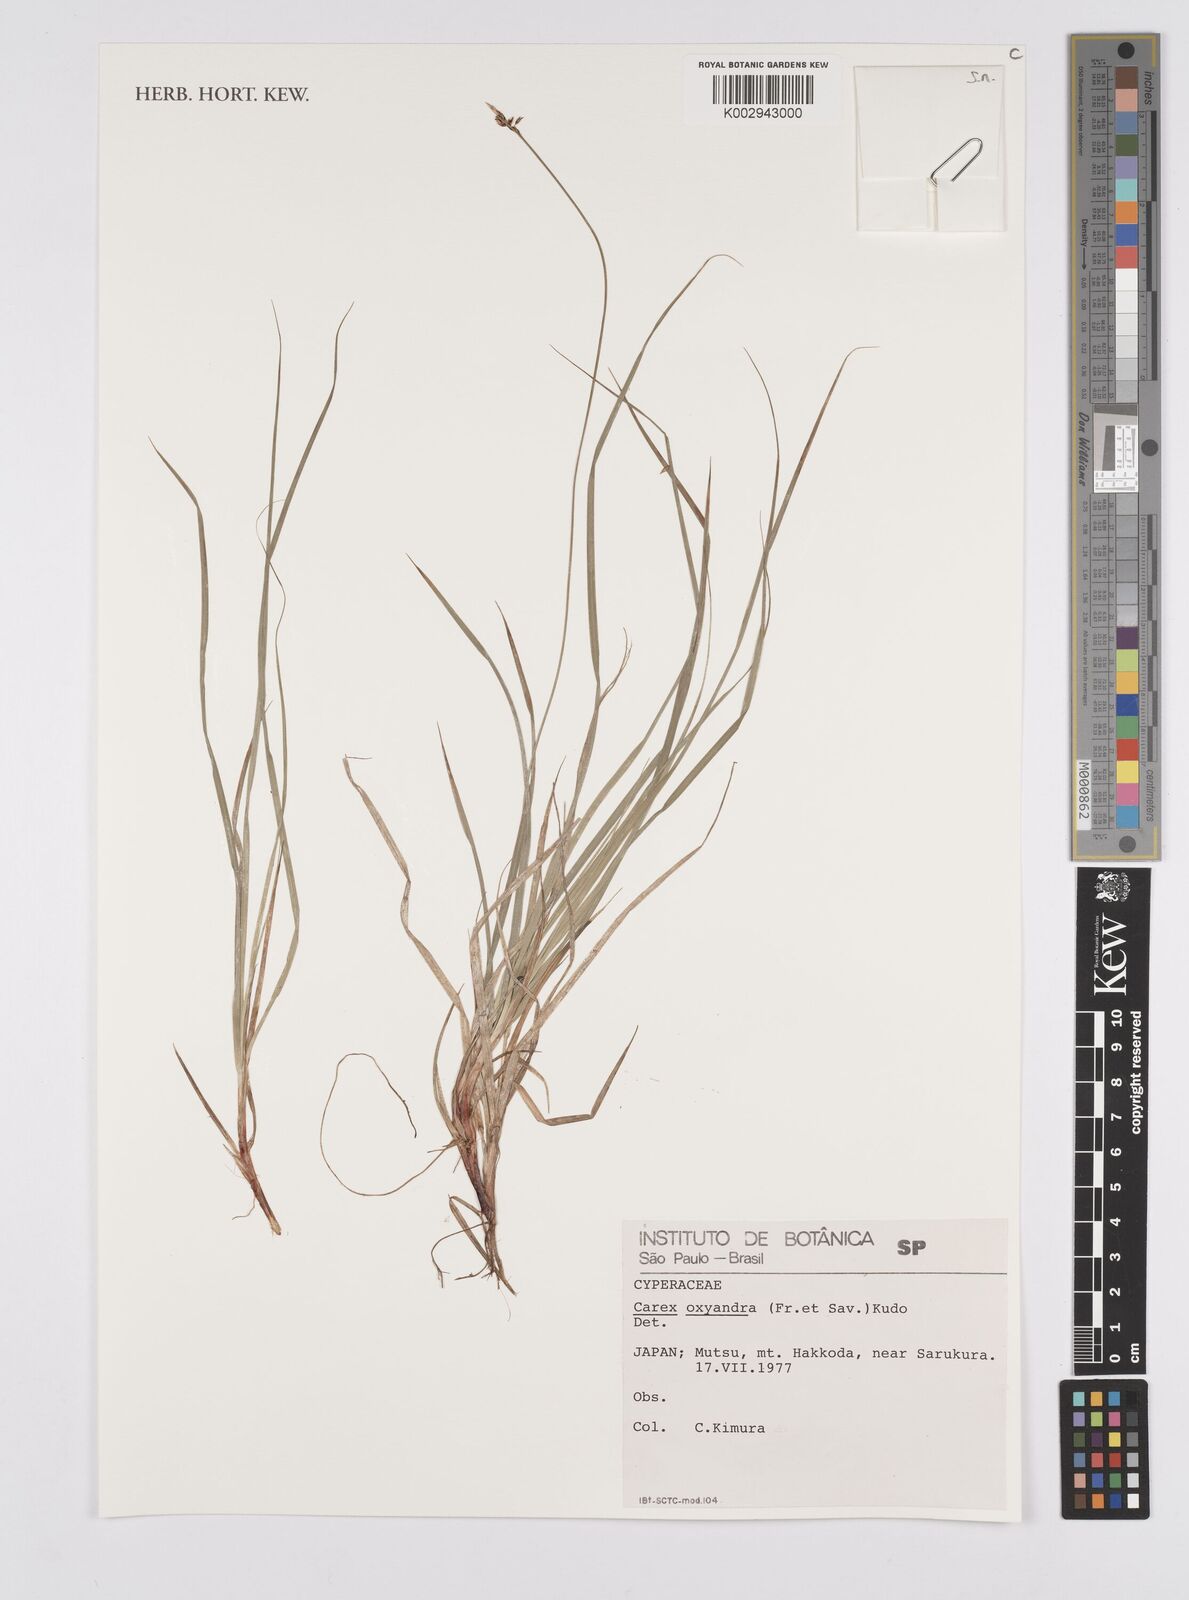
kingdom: Plantae
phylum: Tracheophyta
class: Liliopsida
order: Poales
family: Cyperaceae
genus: Carex
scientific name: Carex oxyandra
